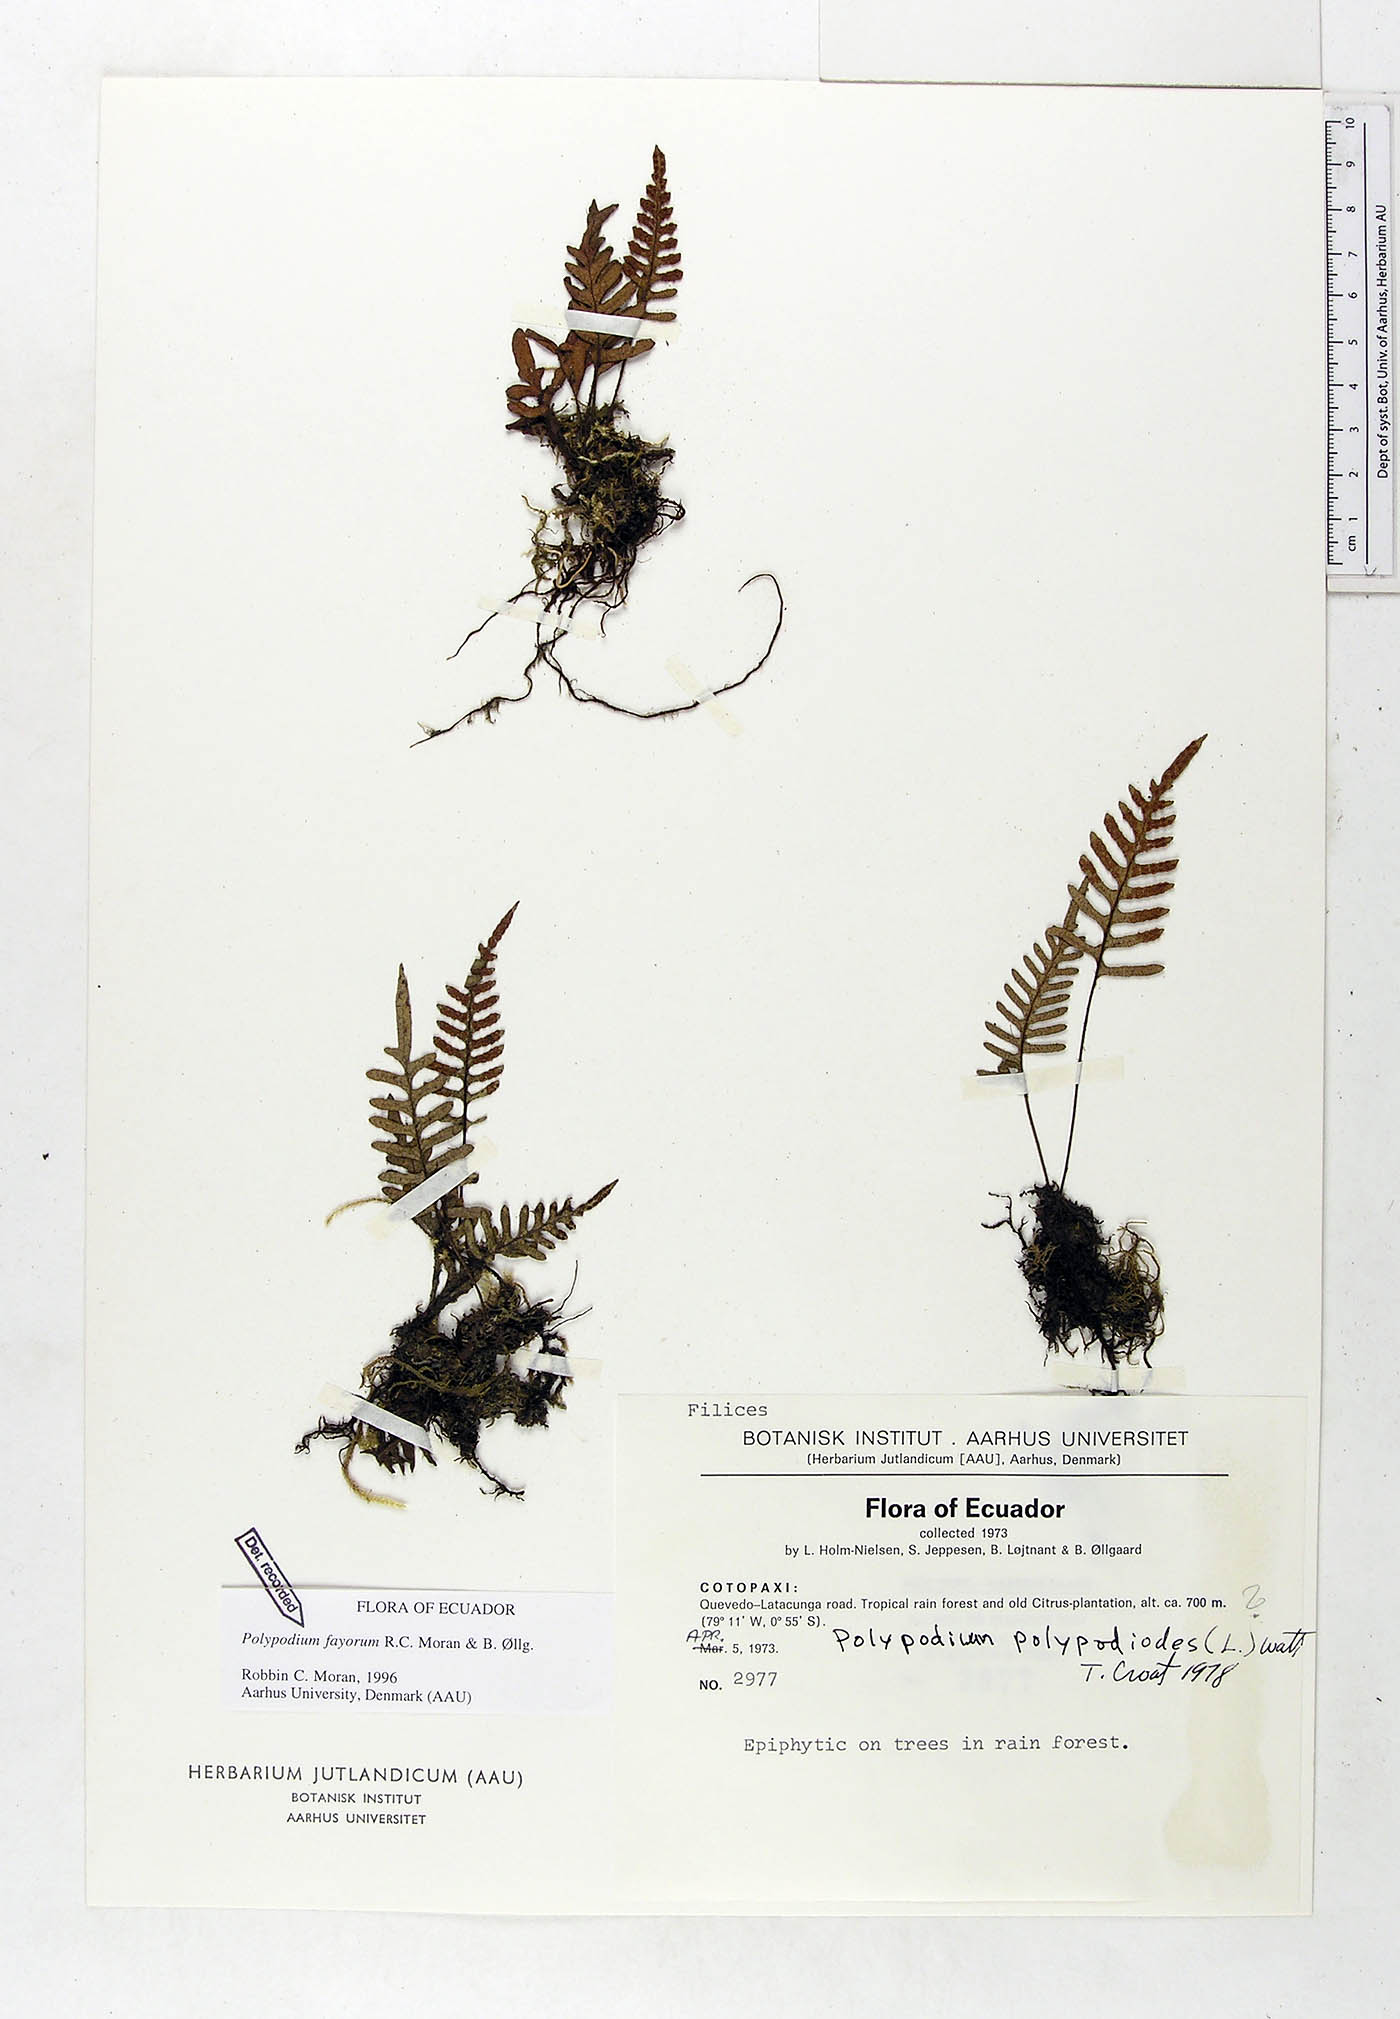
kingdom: Plantae
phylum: Tracheophyta
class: Polypodiopsida
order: Polypodiales
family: Polypodiaceae
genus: Pleopeltis
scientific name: Pleopeltis fayorum
